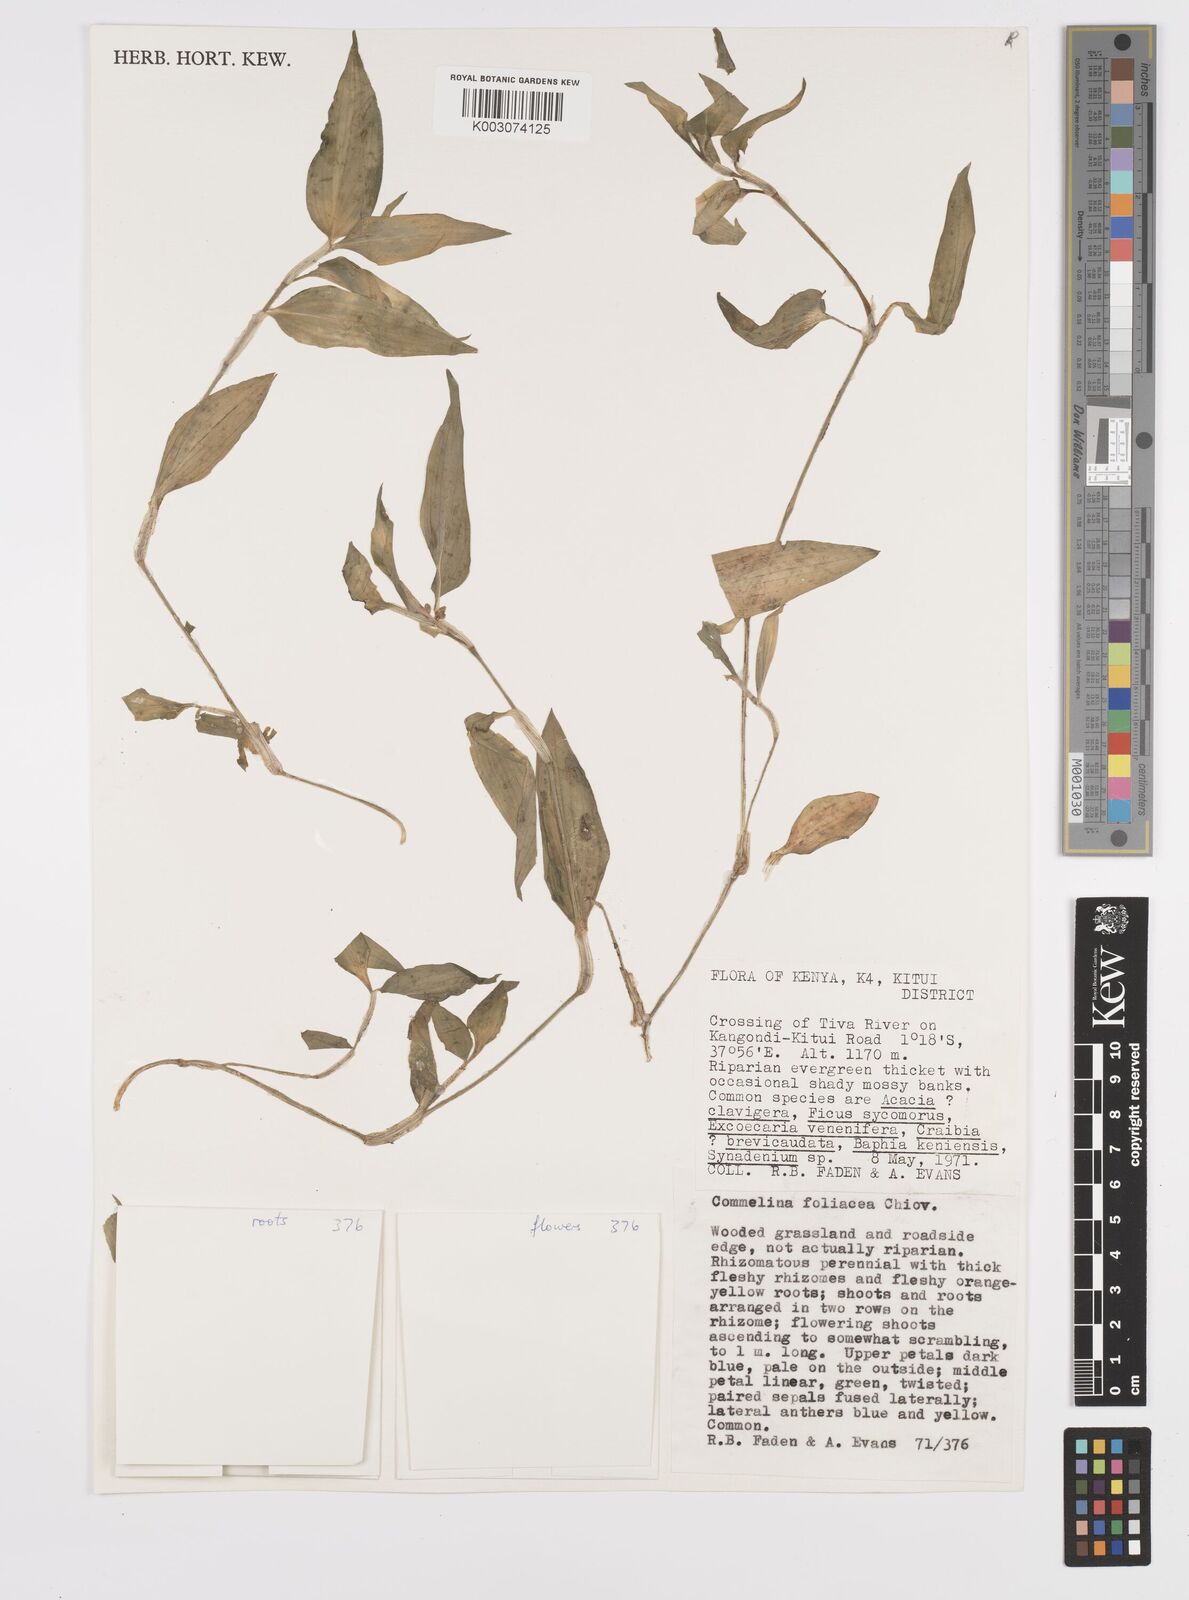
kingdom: Plantae
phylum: Tracheophyta
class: Liliopsida
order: Commelinales
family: Commelinaceae
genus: Commelina
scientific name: Commelina foliacea
